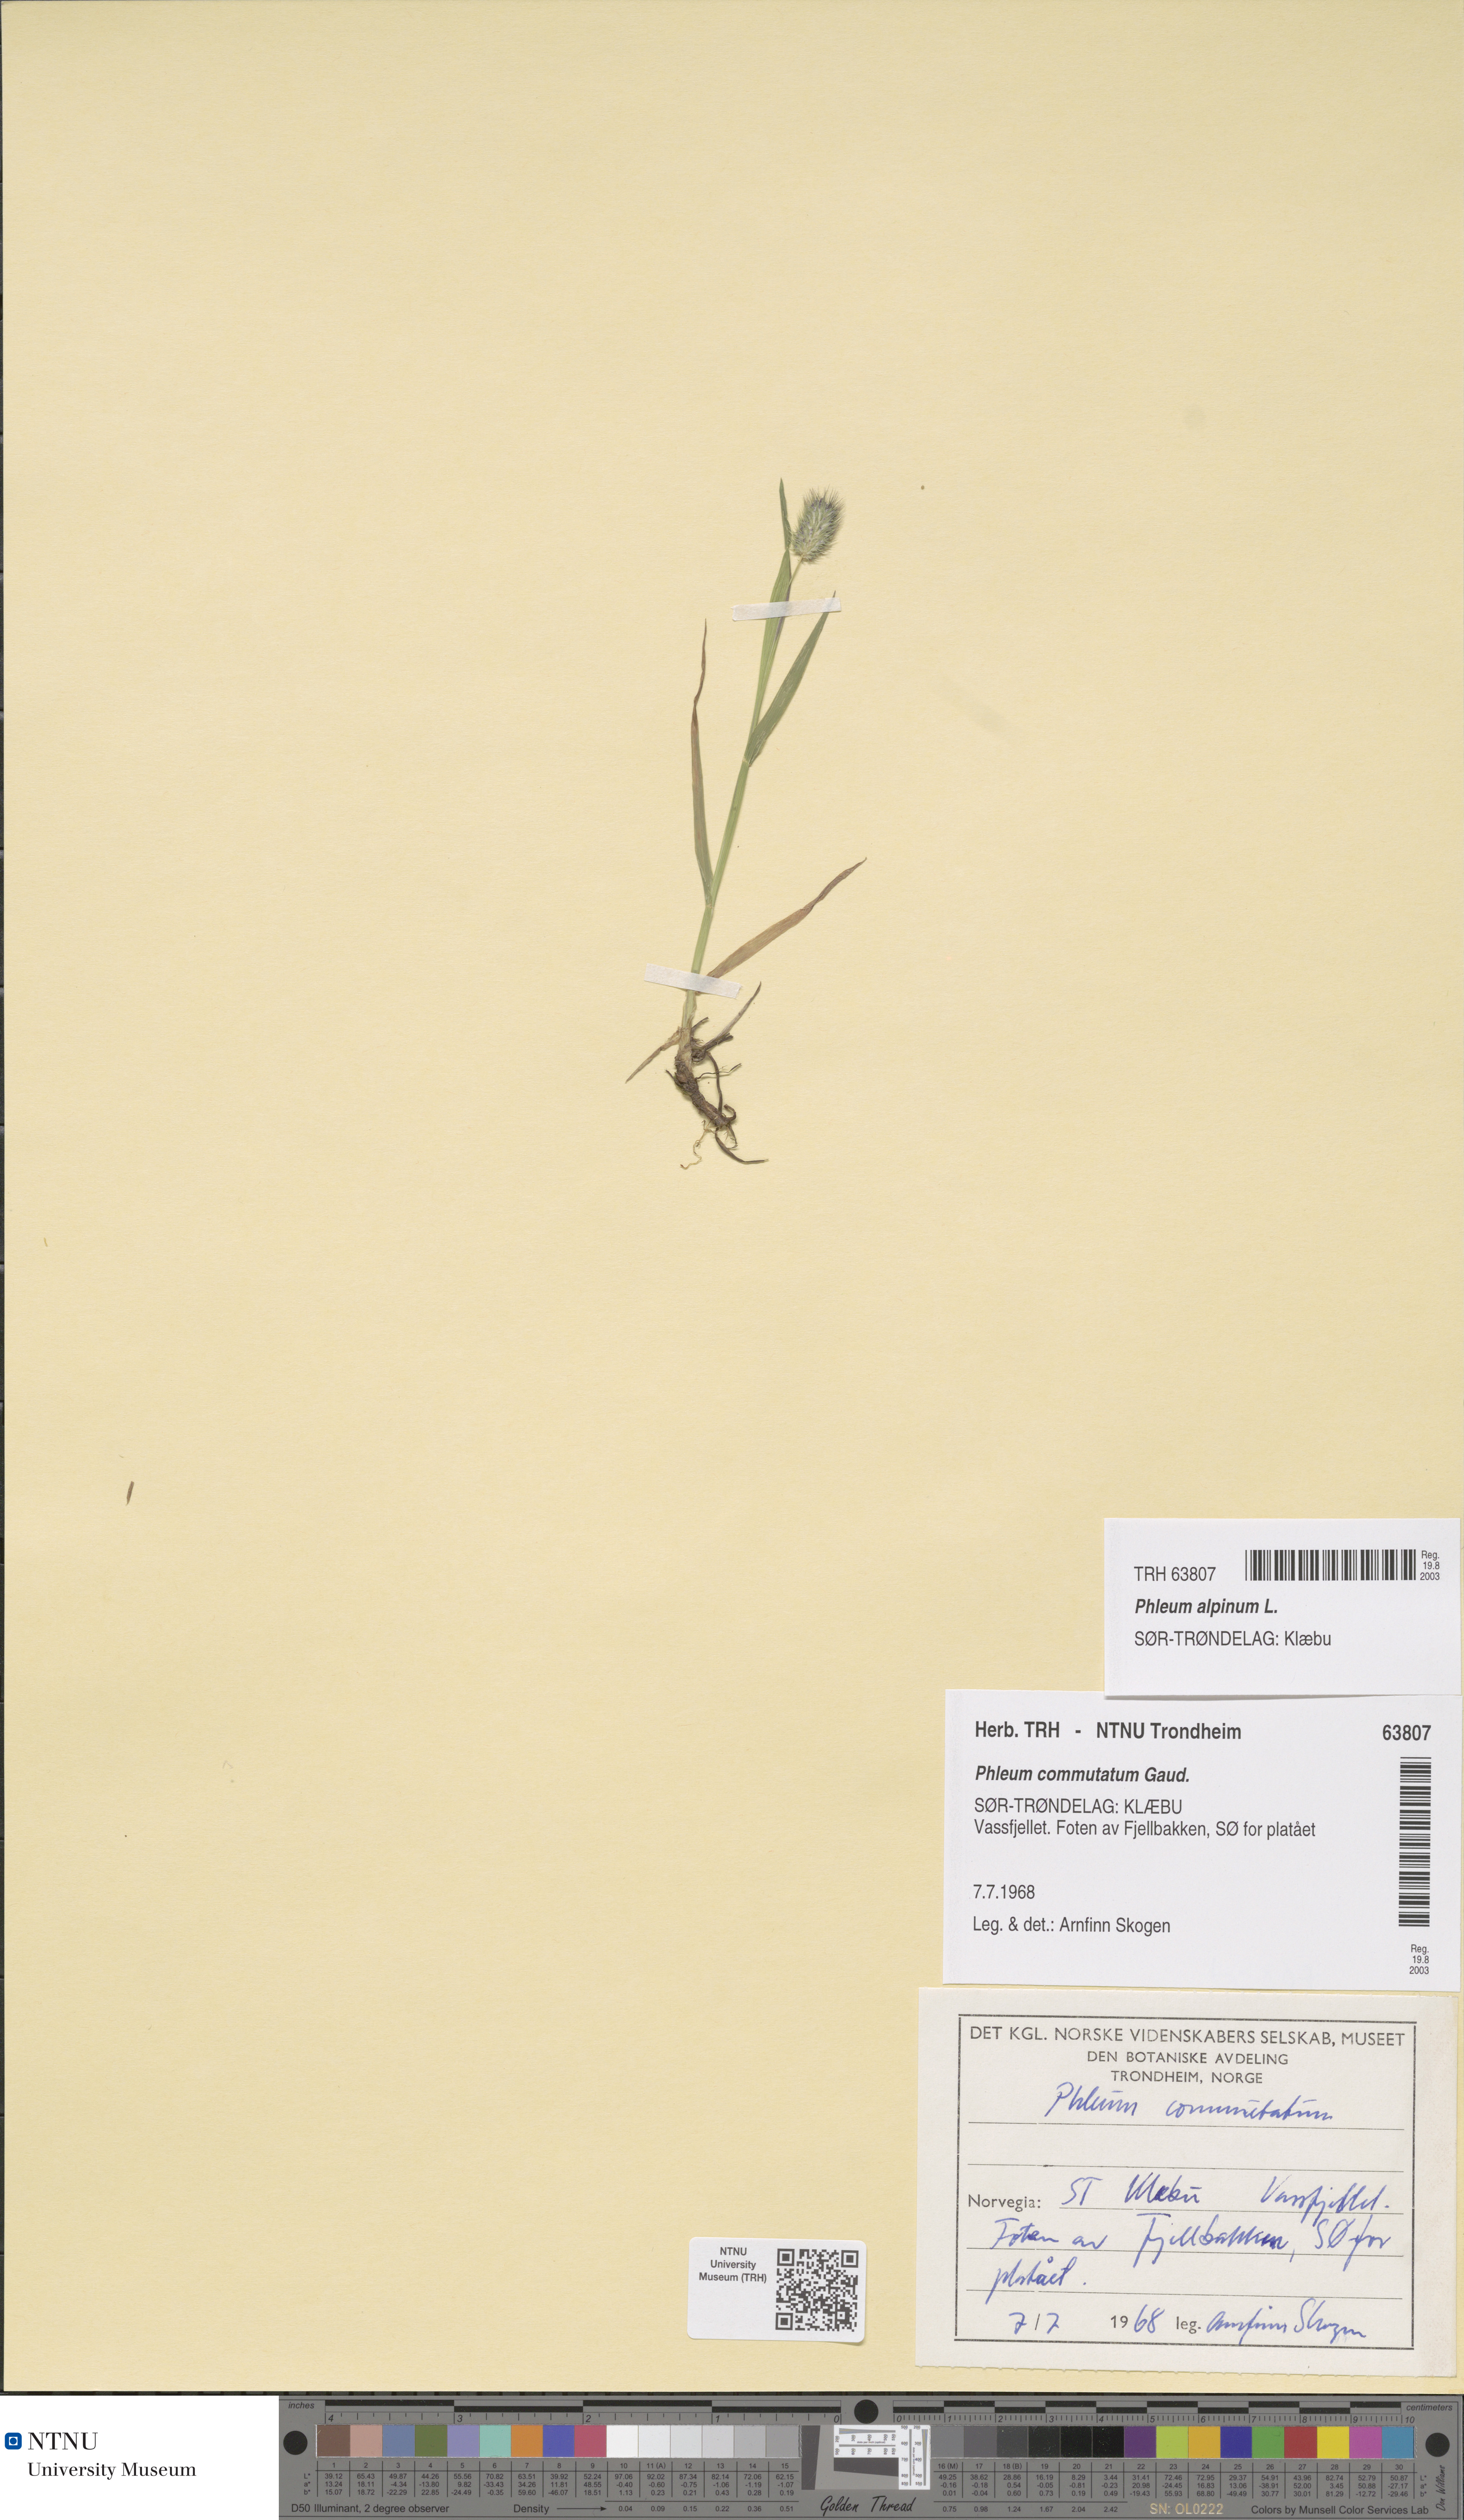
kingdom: Plantae
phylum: Tracheophyta
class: Liliopsida
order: Poales
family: Poaceae
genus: Phleum
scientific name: Phleum alpinum
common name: Alpine cat's-tail
